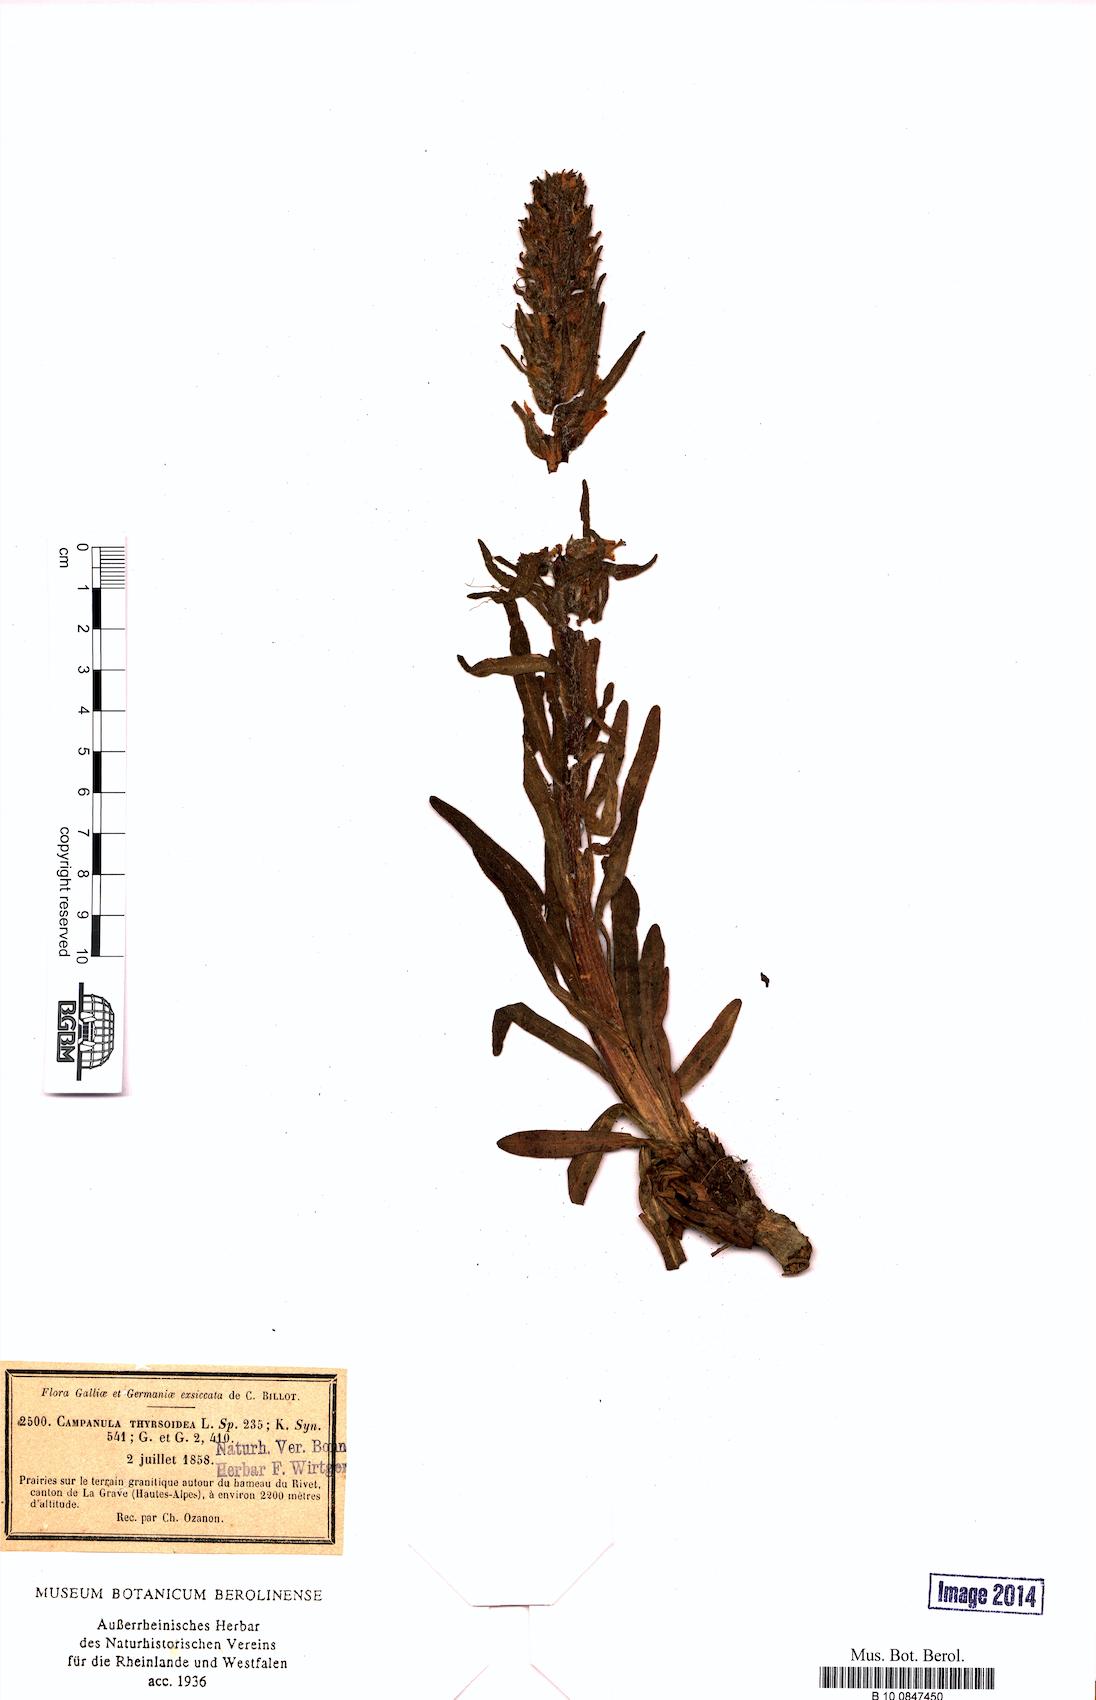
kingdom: Plantae
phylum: Tracheophyta
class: Magnoliopsida
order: Asterales
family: Campanulaceae
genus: Campanula
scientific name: Campanula thyrsoides
